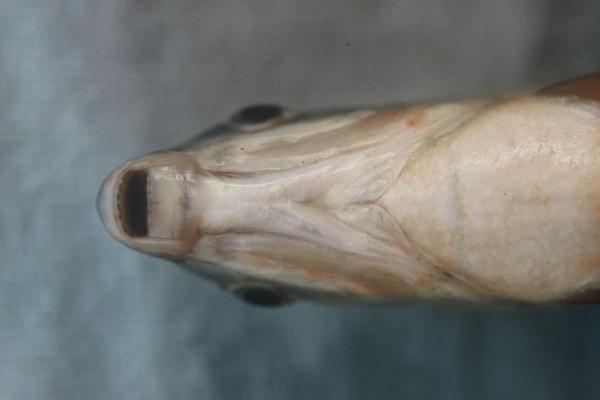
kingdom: Animalia
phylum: Chordata
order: Characiformes
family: Distichodontidae
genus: Distichodus
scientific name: Distichodus schenga
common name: Chessa
